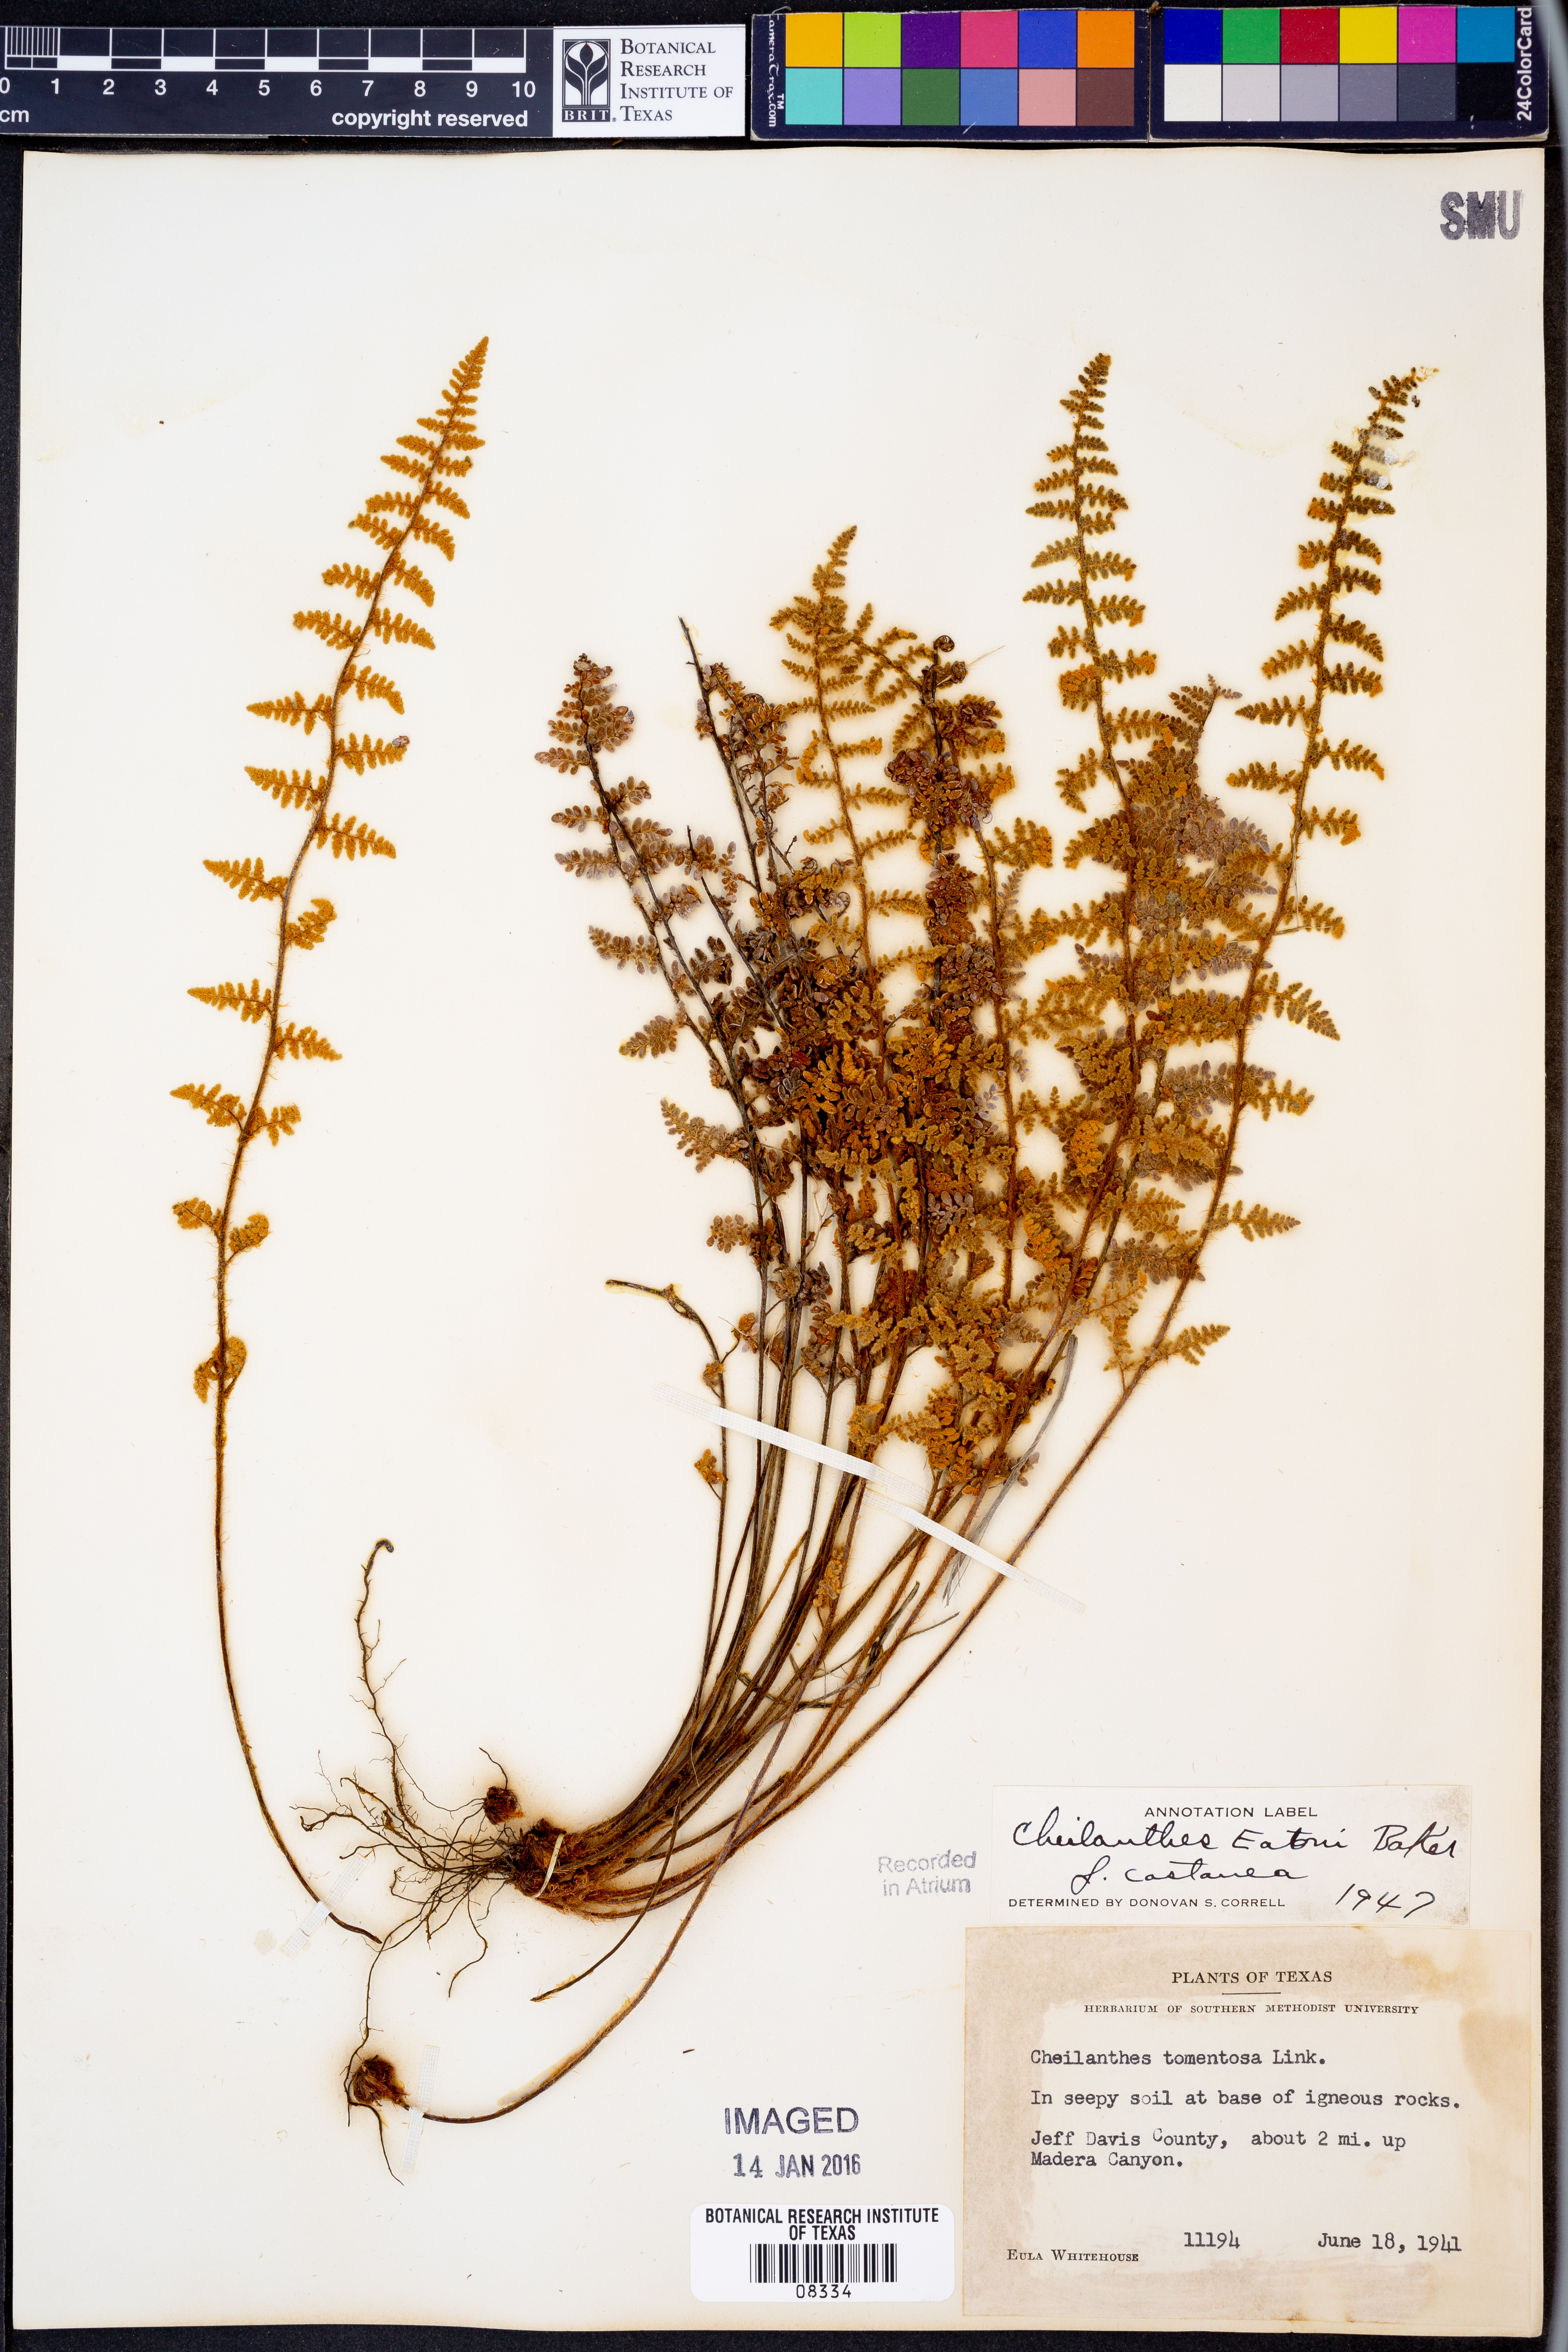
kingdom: Plantae
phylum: Tracheophyta
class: Polypodiopsida
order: Polypodiales
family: Pteridaceae
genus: Myriopteris
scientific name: Myriopteris rufa
